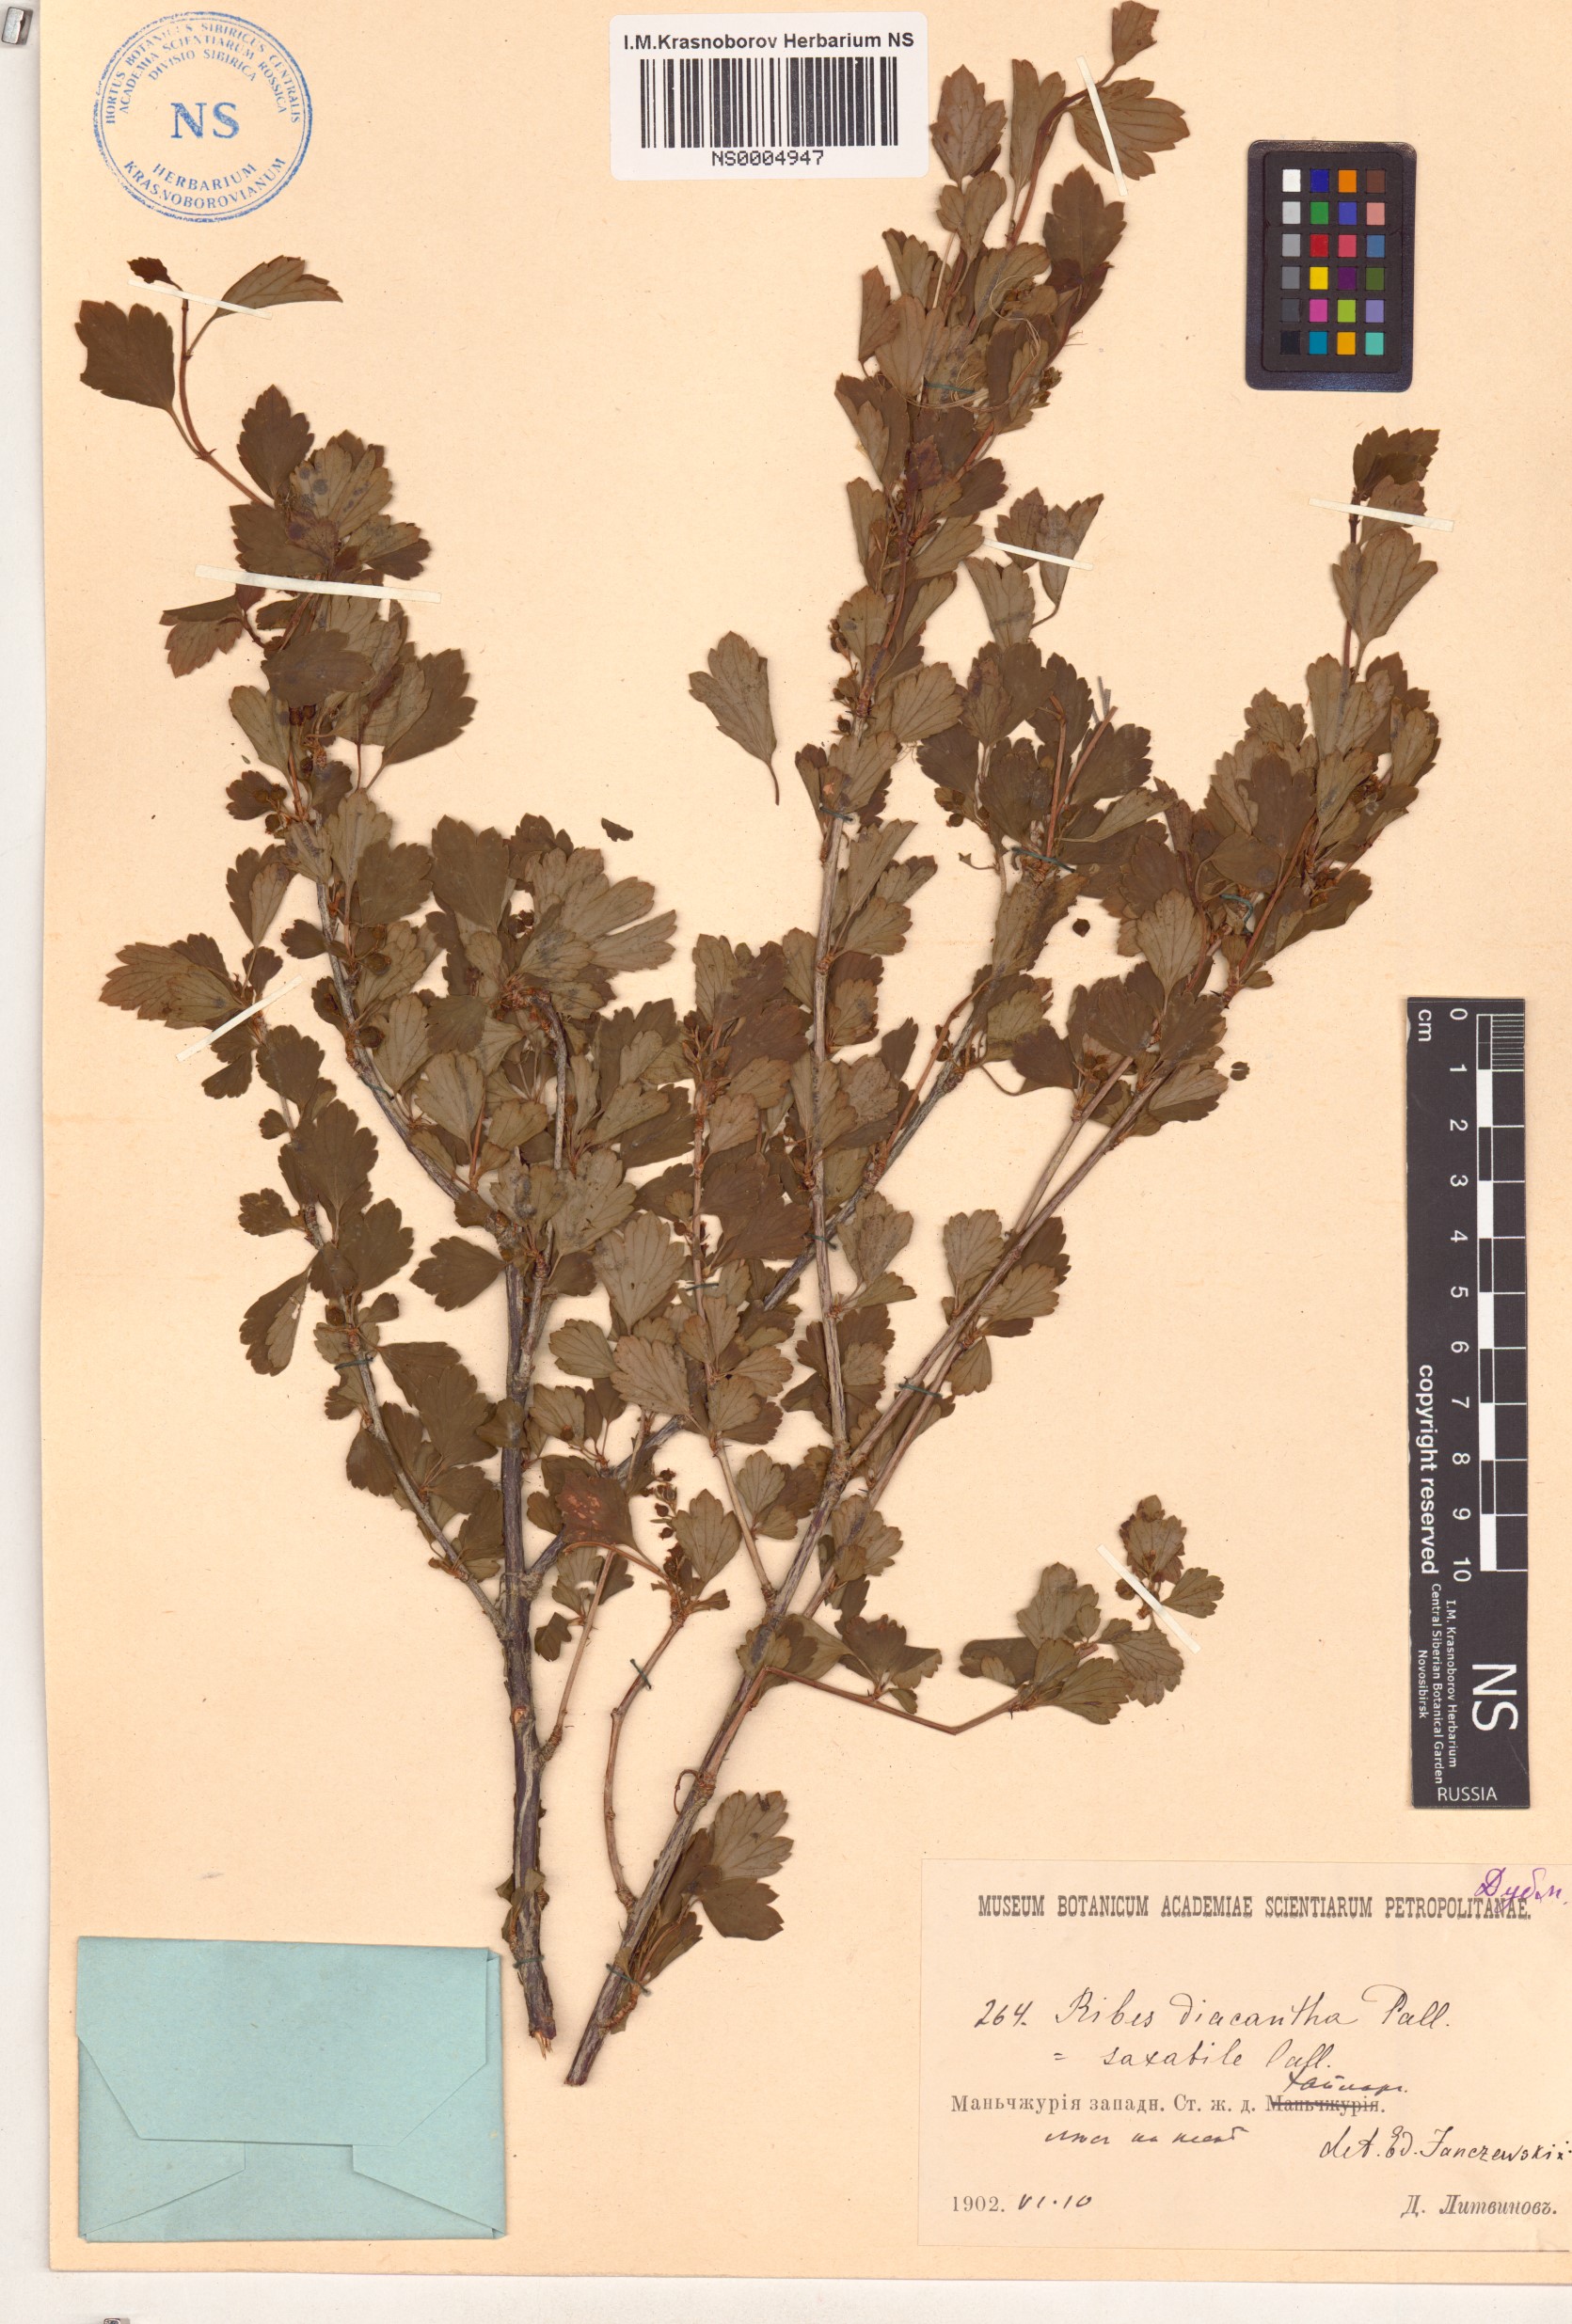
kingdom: Plantae
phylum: Tracheophyta
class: Magnoliopsida
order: Saxifragales
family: Grossulariaceae
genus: Ribes
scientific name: Ribes diacanthum
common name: Siberian currant
